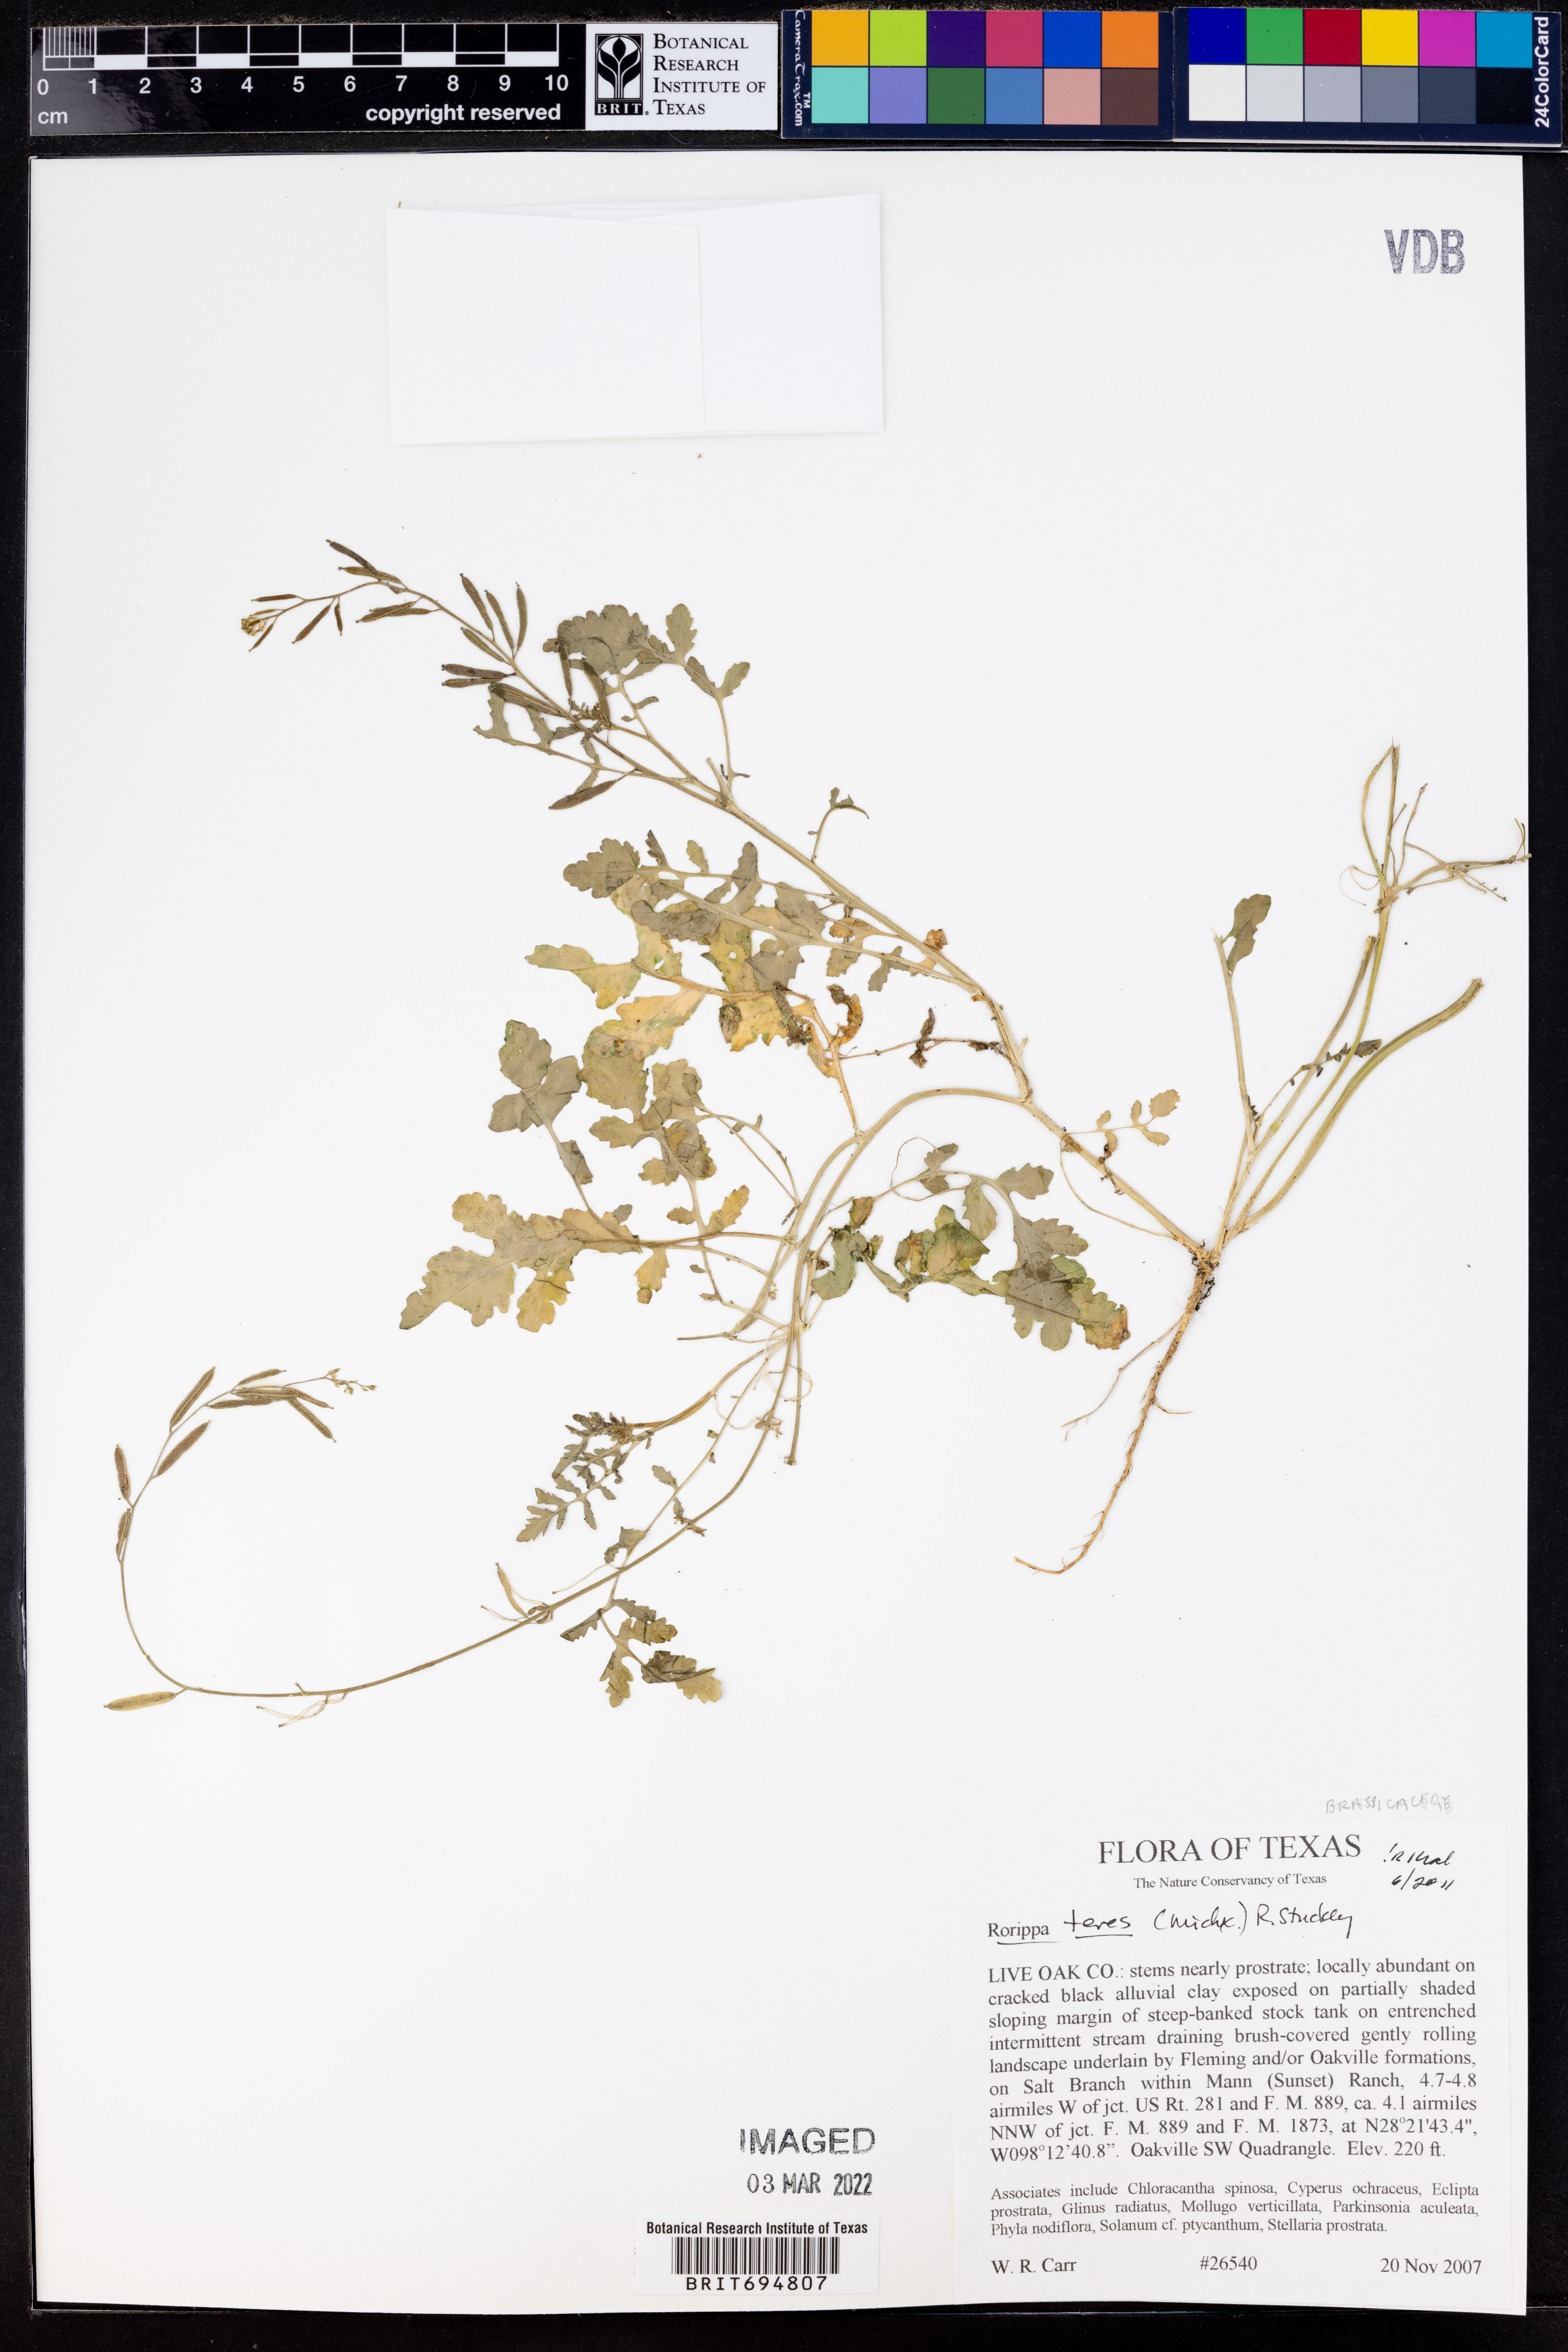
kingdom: Plantae
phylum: Tracheophyta
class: Magnoliopsida
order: Brassicales
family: Brassicaceae
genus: Rorippa
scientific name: Rorippa teres
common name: Southern marsh yellowcress
